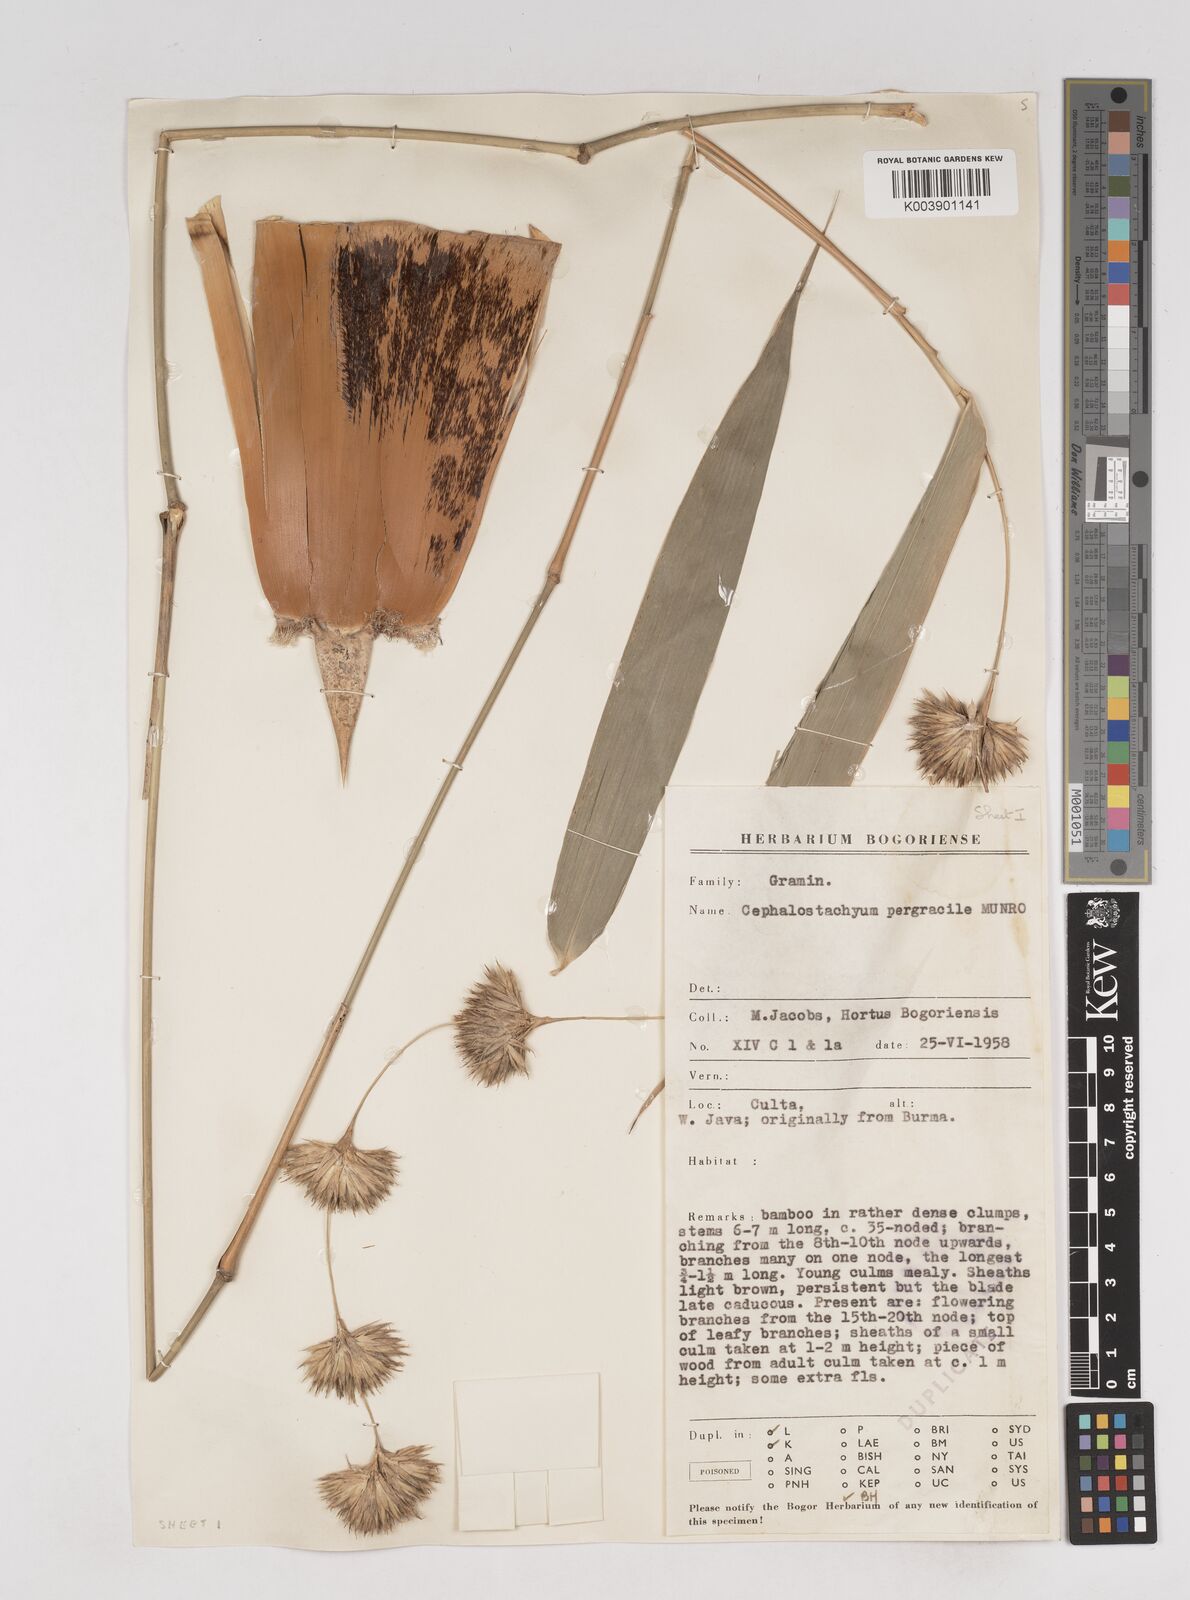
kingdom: Plantae
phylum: Tracheophyta
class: Liliopsida
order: Poales
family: Poaceae
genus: Schizostachyum
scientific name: Schizostachyum pergracile
